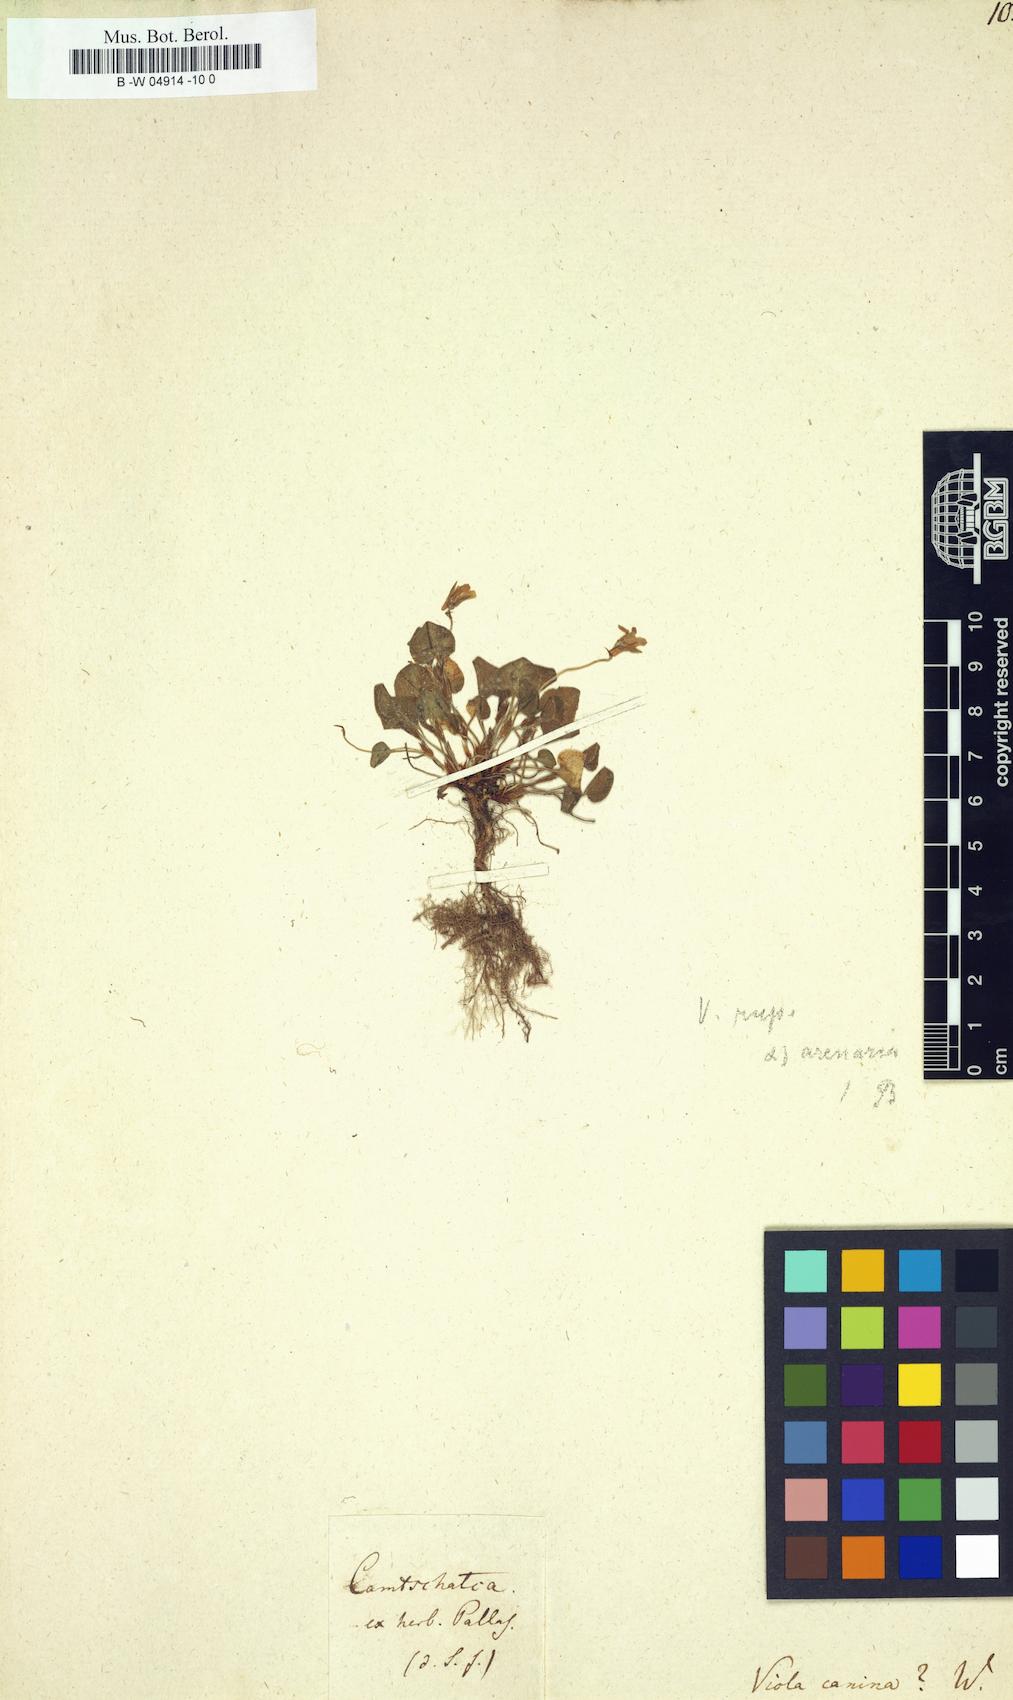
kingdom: Plantae
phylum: Tracheophyta
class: Magnoliopsida
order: Malpighiales
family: Violaceae
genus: Viola
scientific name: Viola canina
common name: Heath dog-violet
